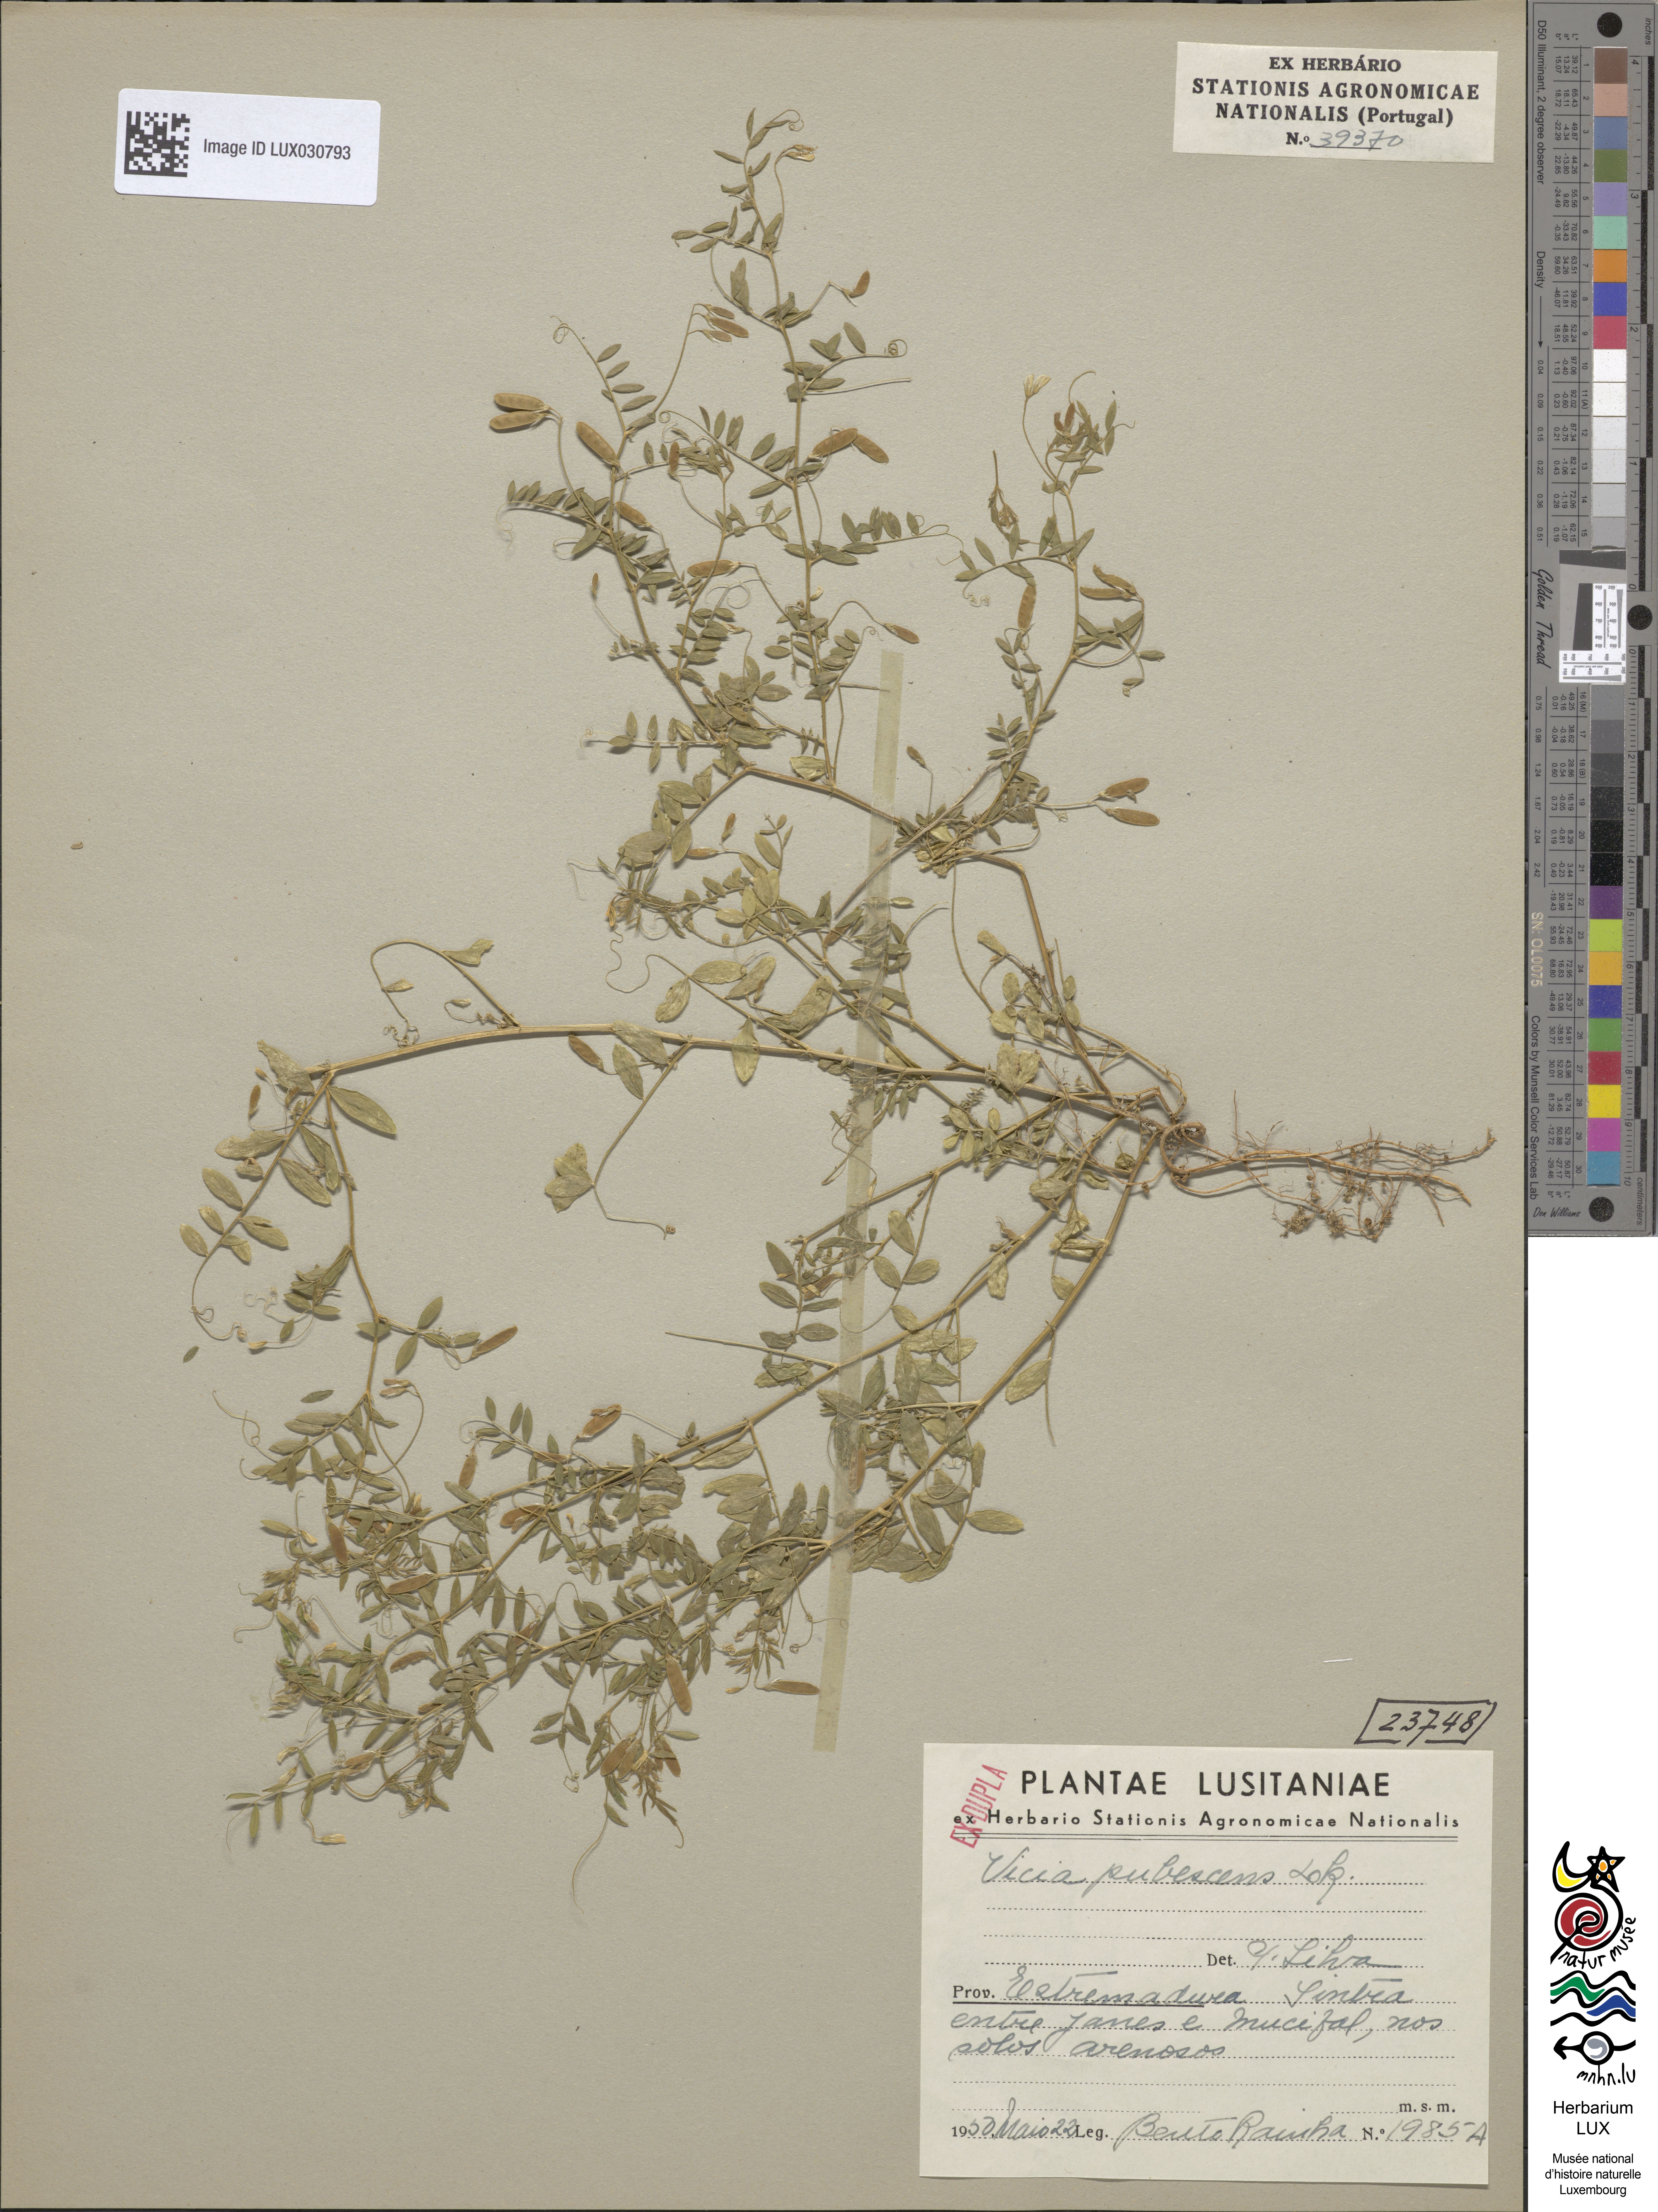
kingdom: Plantae
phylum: Tracheophyta
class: Magnoliopsida
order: Fabales
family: Fabaceae
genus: Vicia
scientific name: Vicia pubescens
